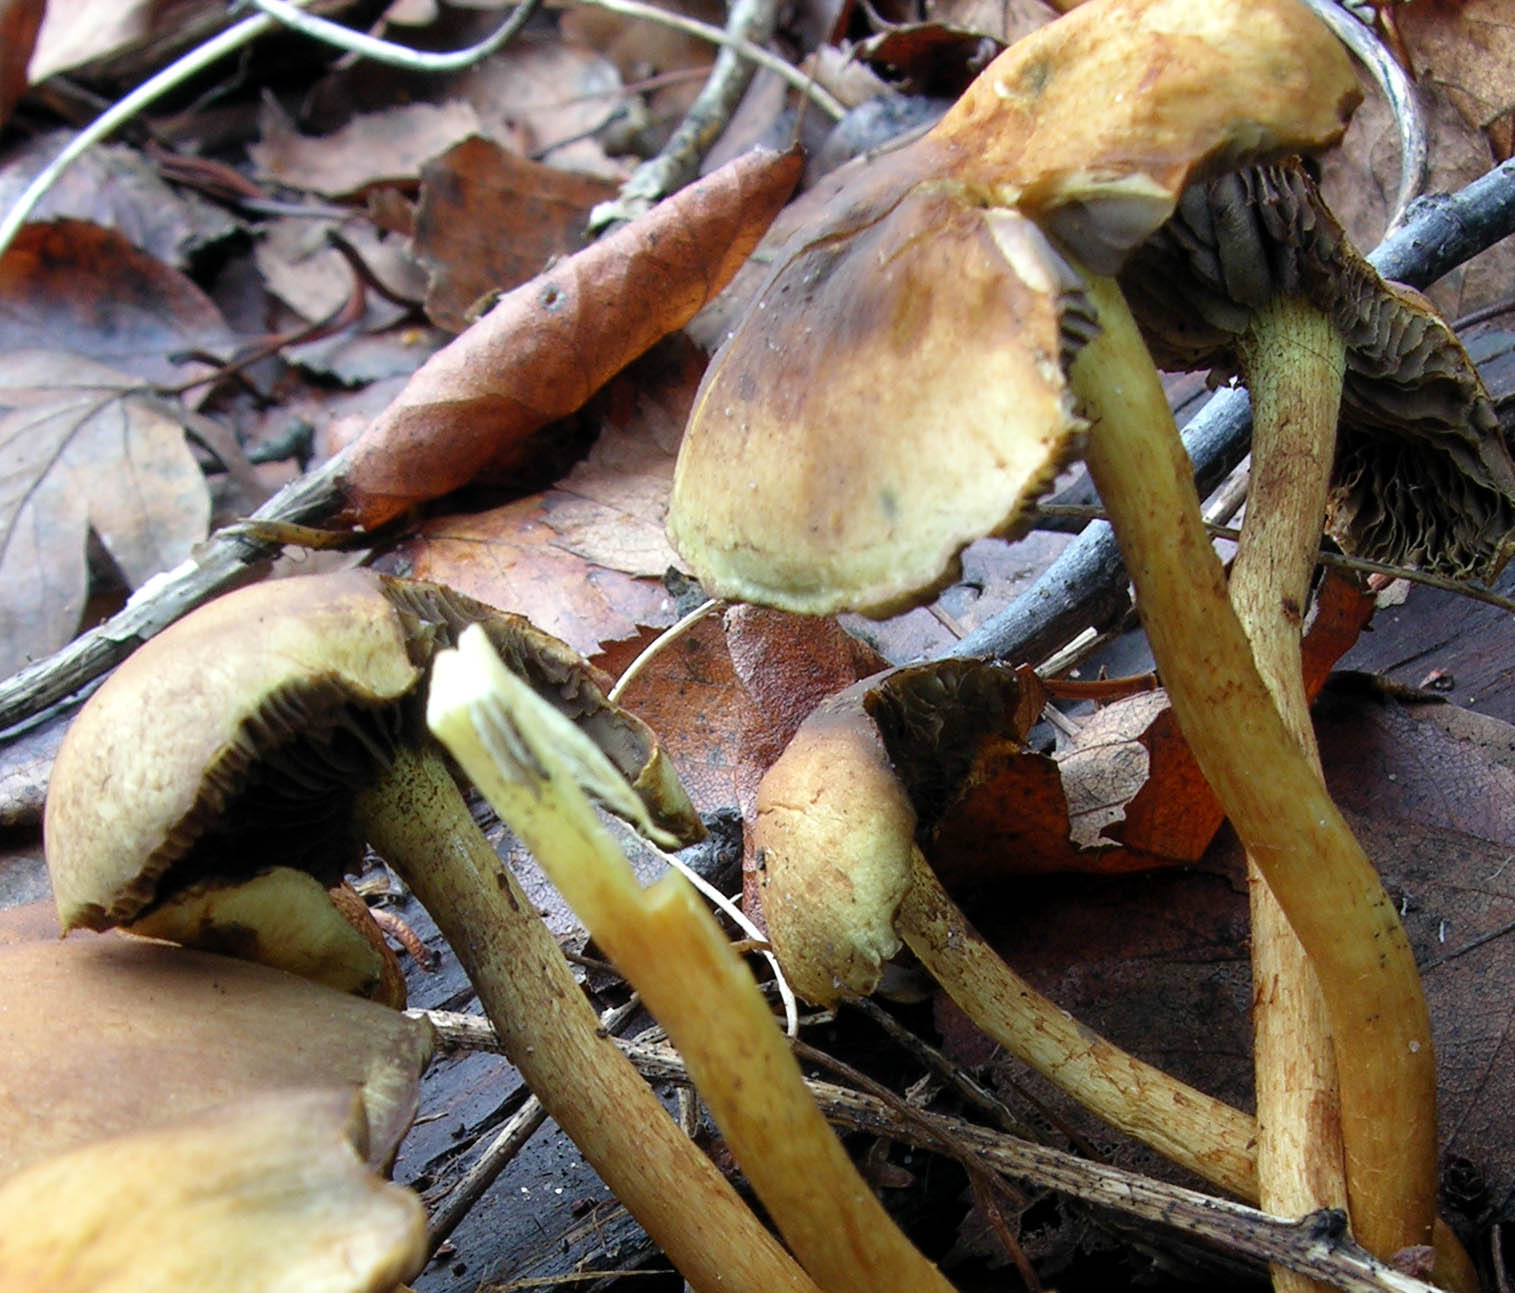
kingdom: Fungi
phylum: Basidiomycota
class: Agaricomycetes
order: Agaricales
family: Strophariaceae
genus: Hypholoma
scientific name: Hypholoma fasciculare
